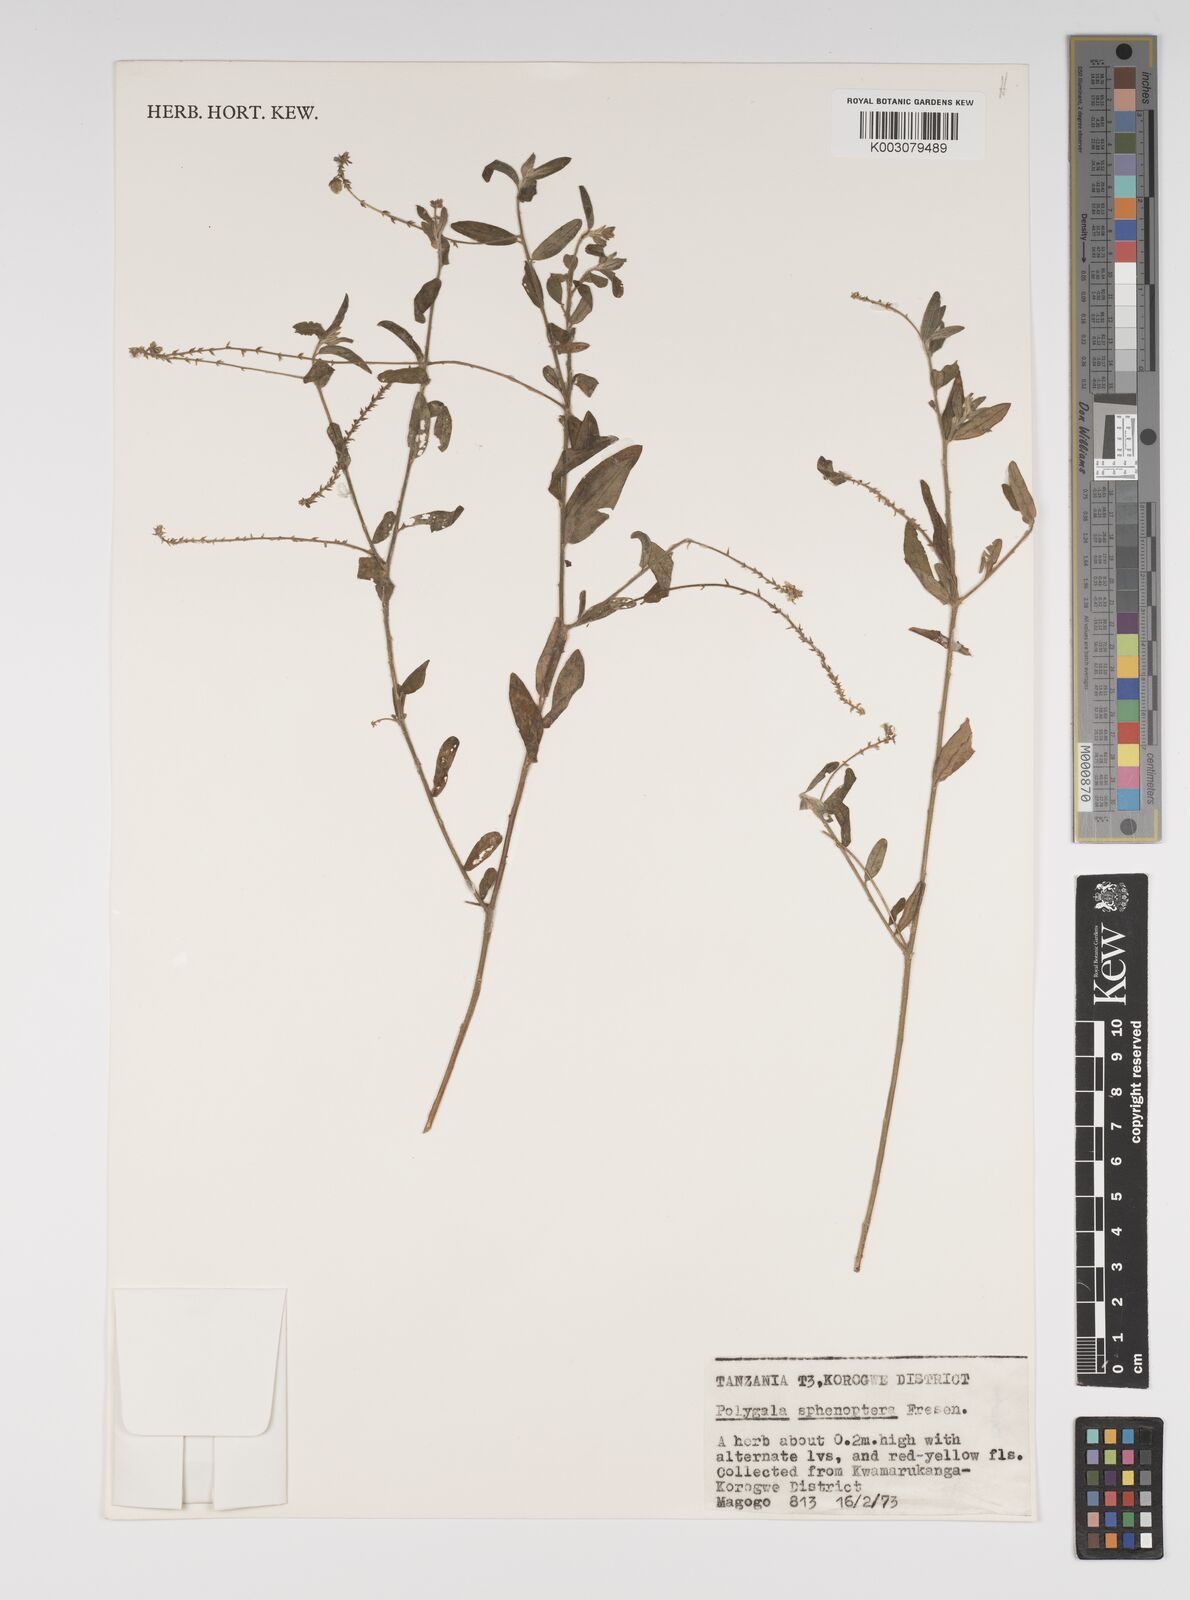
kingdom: Plantae
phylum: Tracheophyta
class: Magnoliopsida
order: Fabales
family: Polygalaceae
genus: Polygala
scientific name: Polygala sphenoptera
